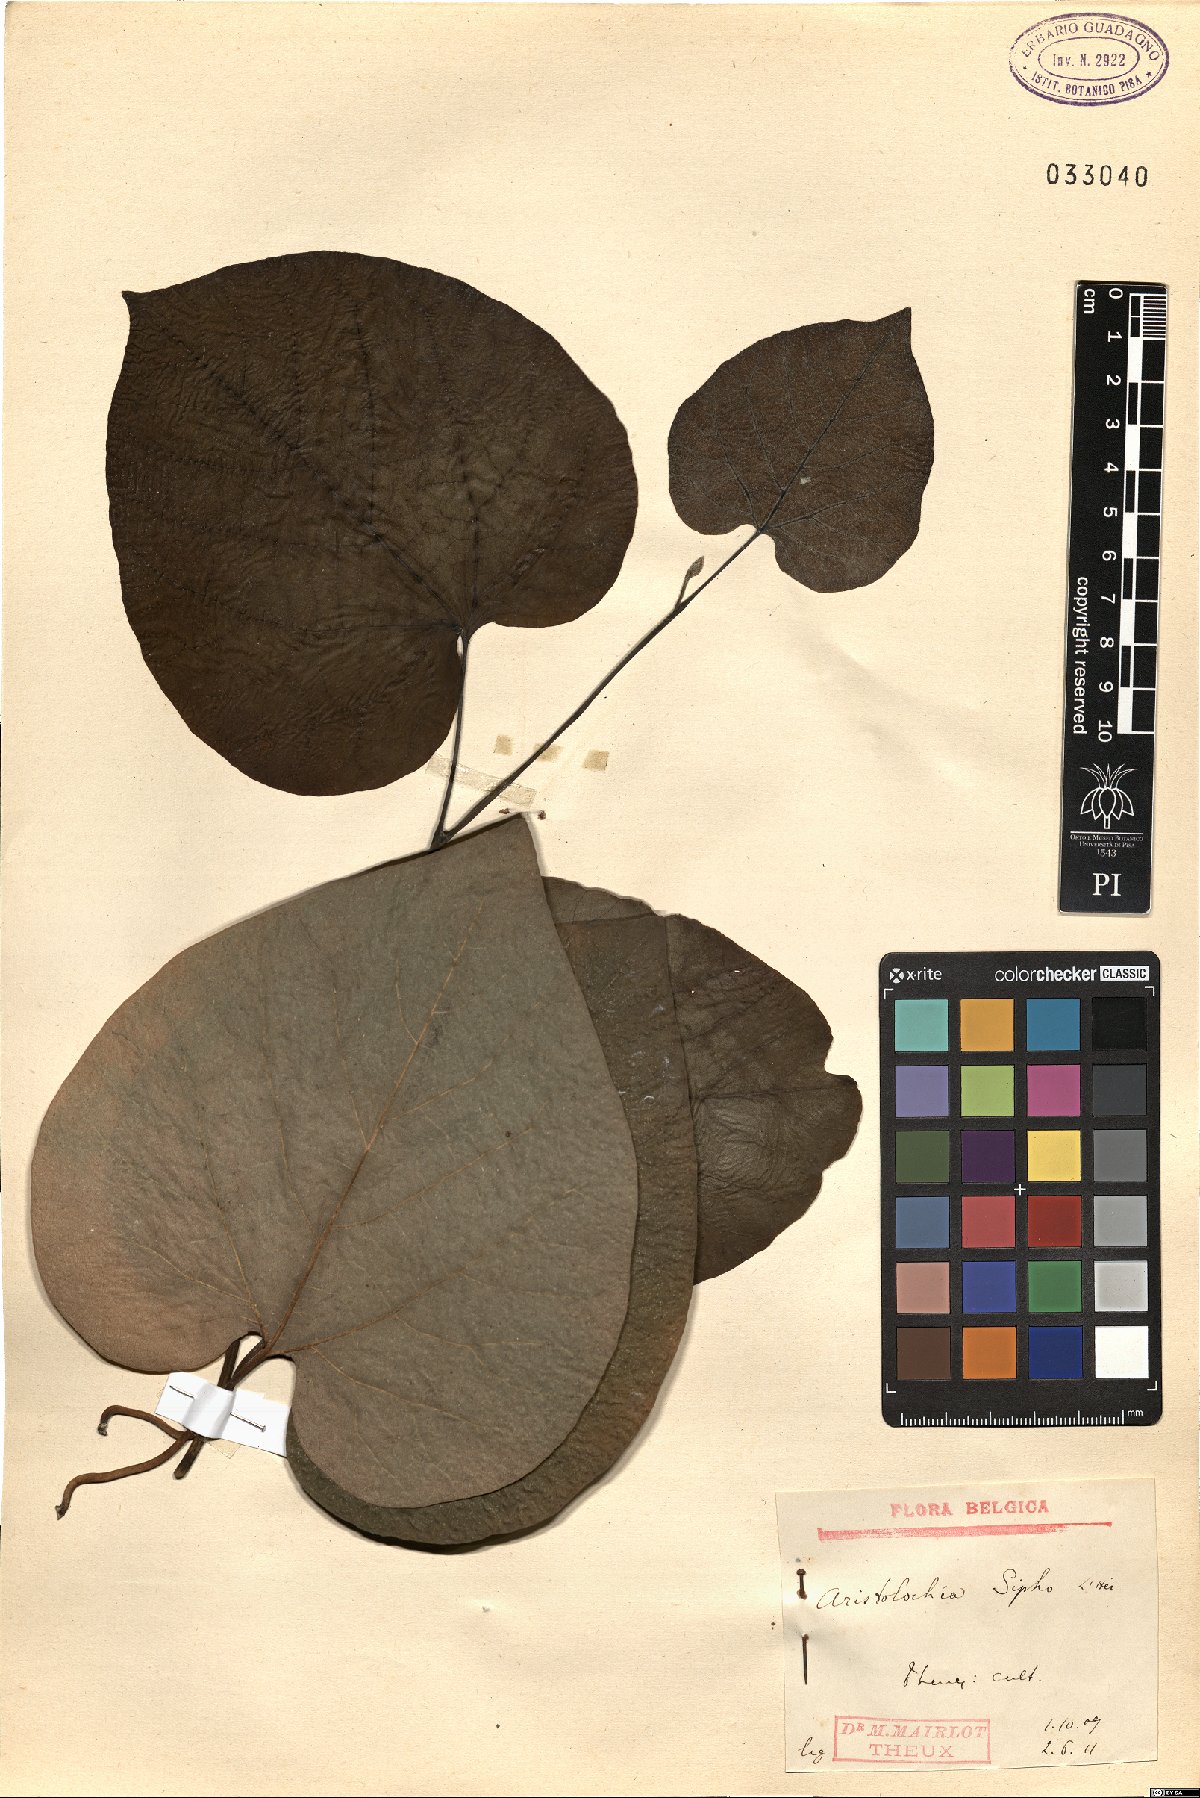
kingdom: Plantae
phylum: Tracheophyta
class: Magnoliopsida
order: Piperales
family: Aristolochiaceae
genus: Isotrema
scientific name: Isotrema macrophyllum
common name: Dutchman's-pipe
